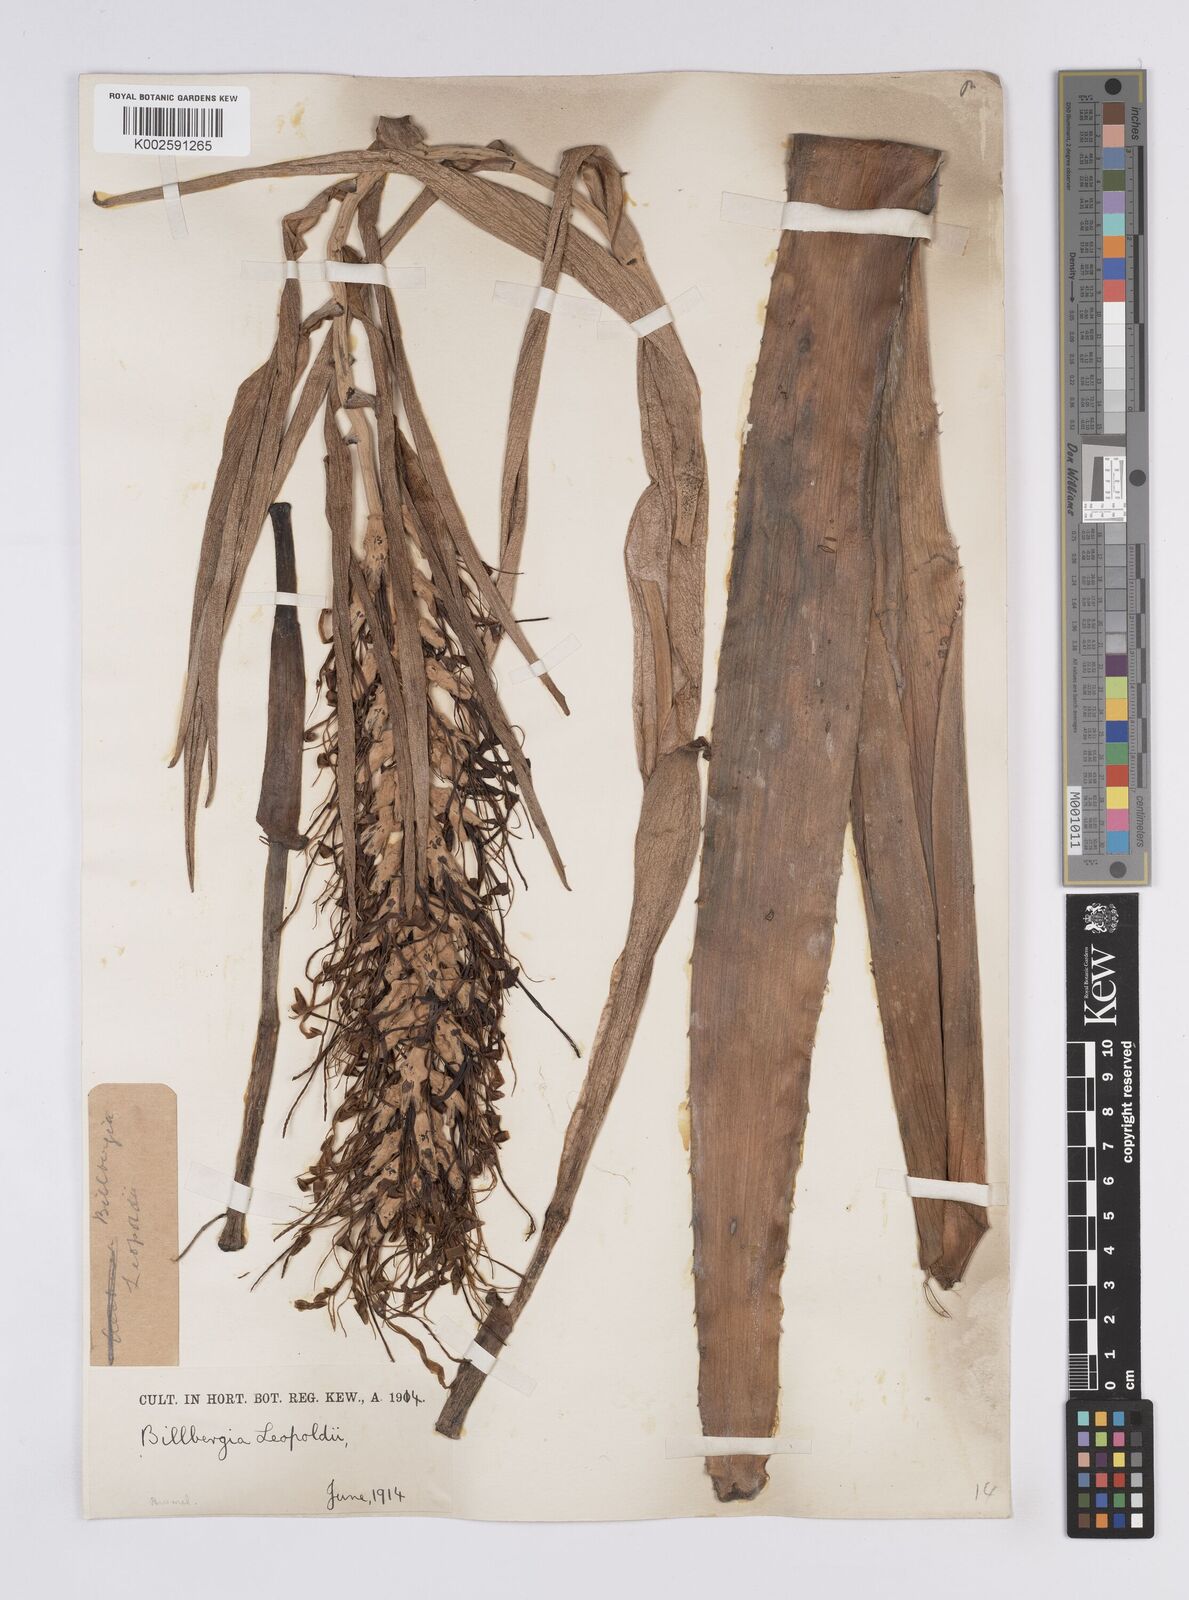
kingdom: Plantae
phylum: Tracheophyta
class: Liliopsida
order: Poales
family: Bromeliaceae
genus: Billbergia
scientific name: Billbergia brasiliensis
